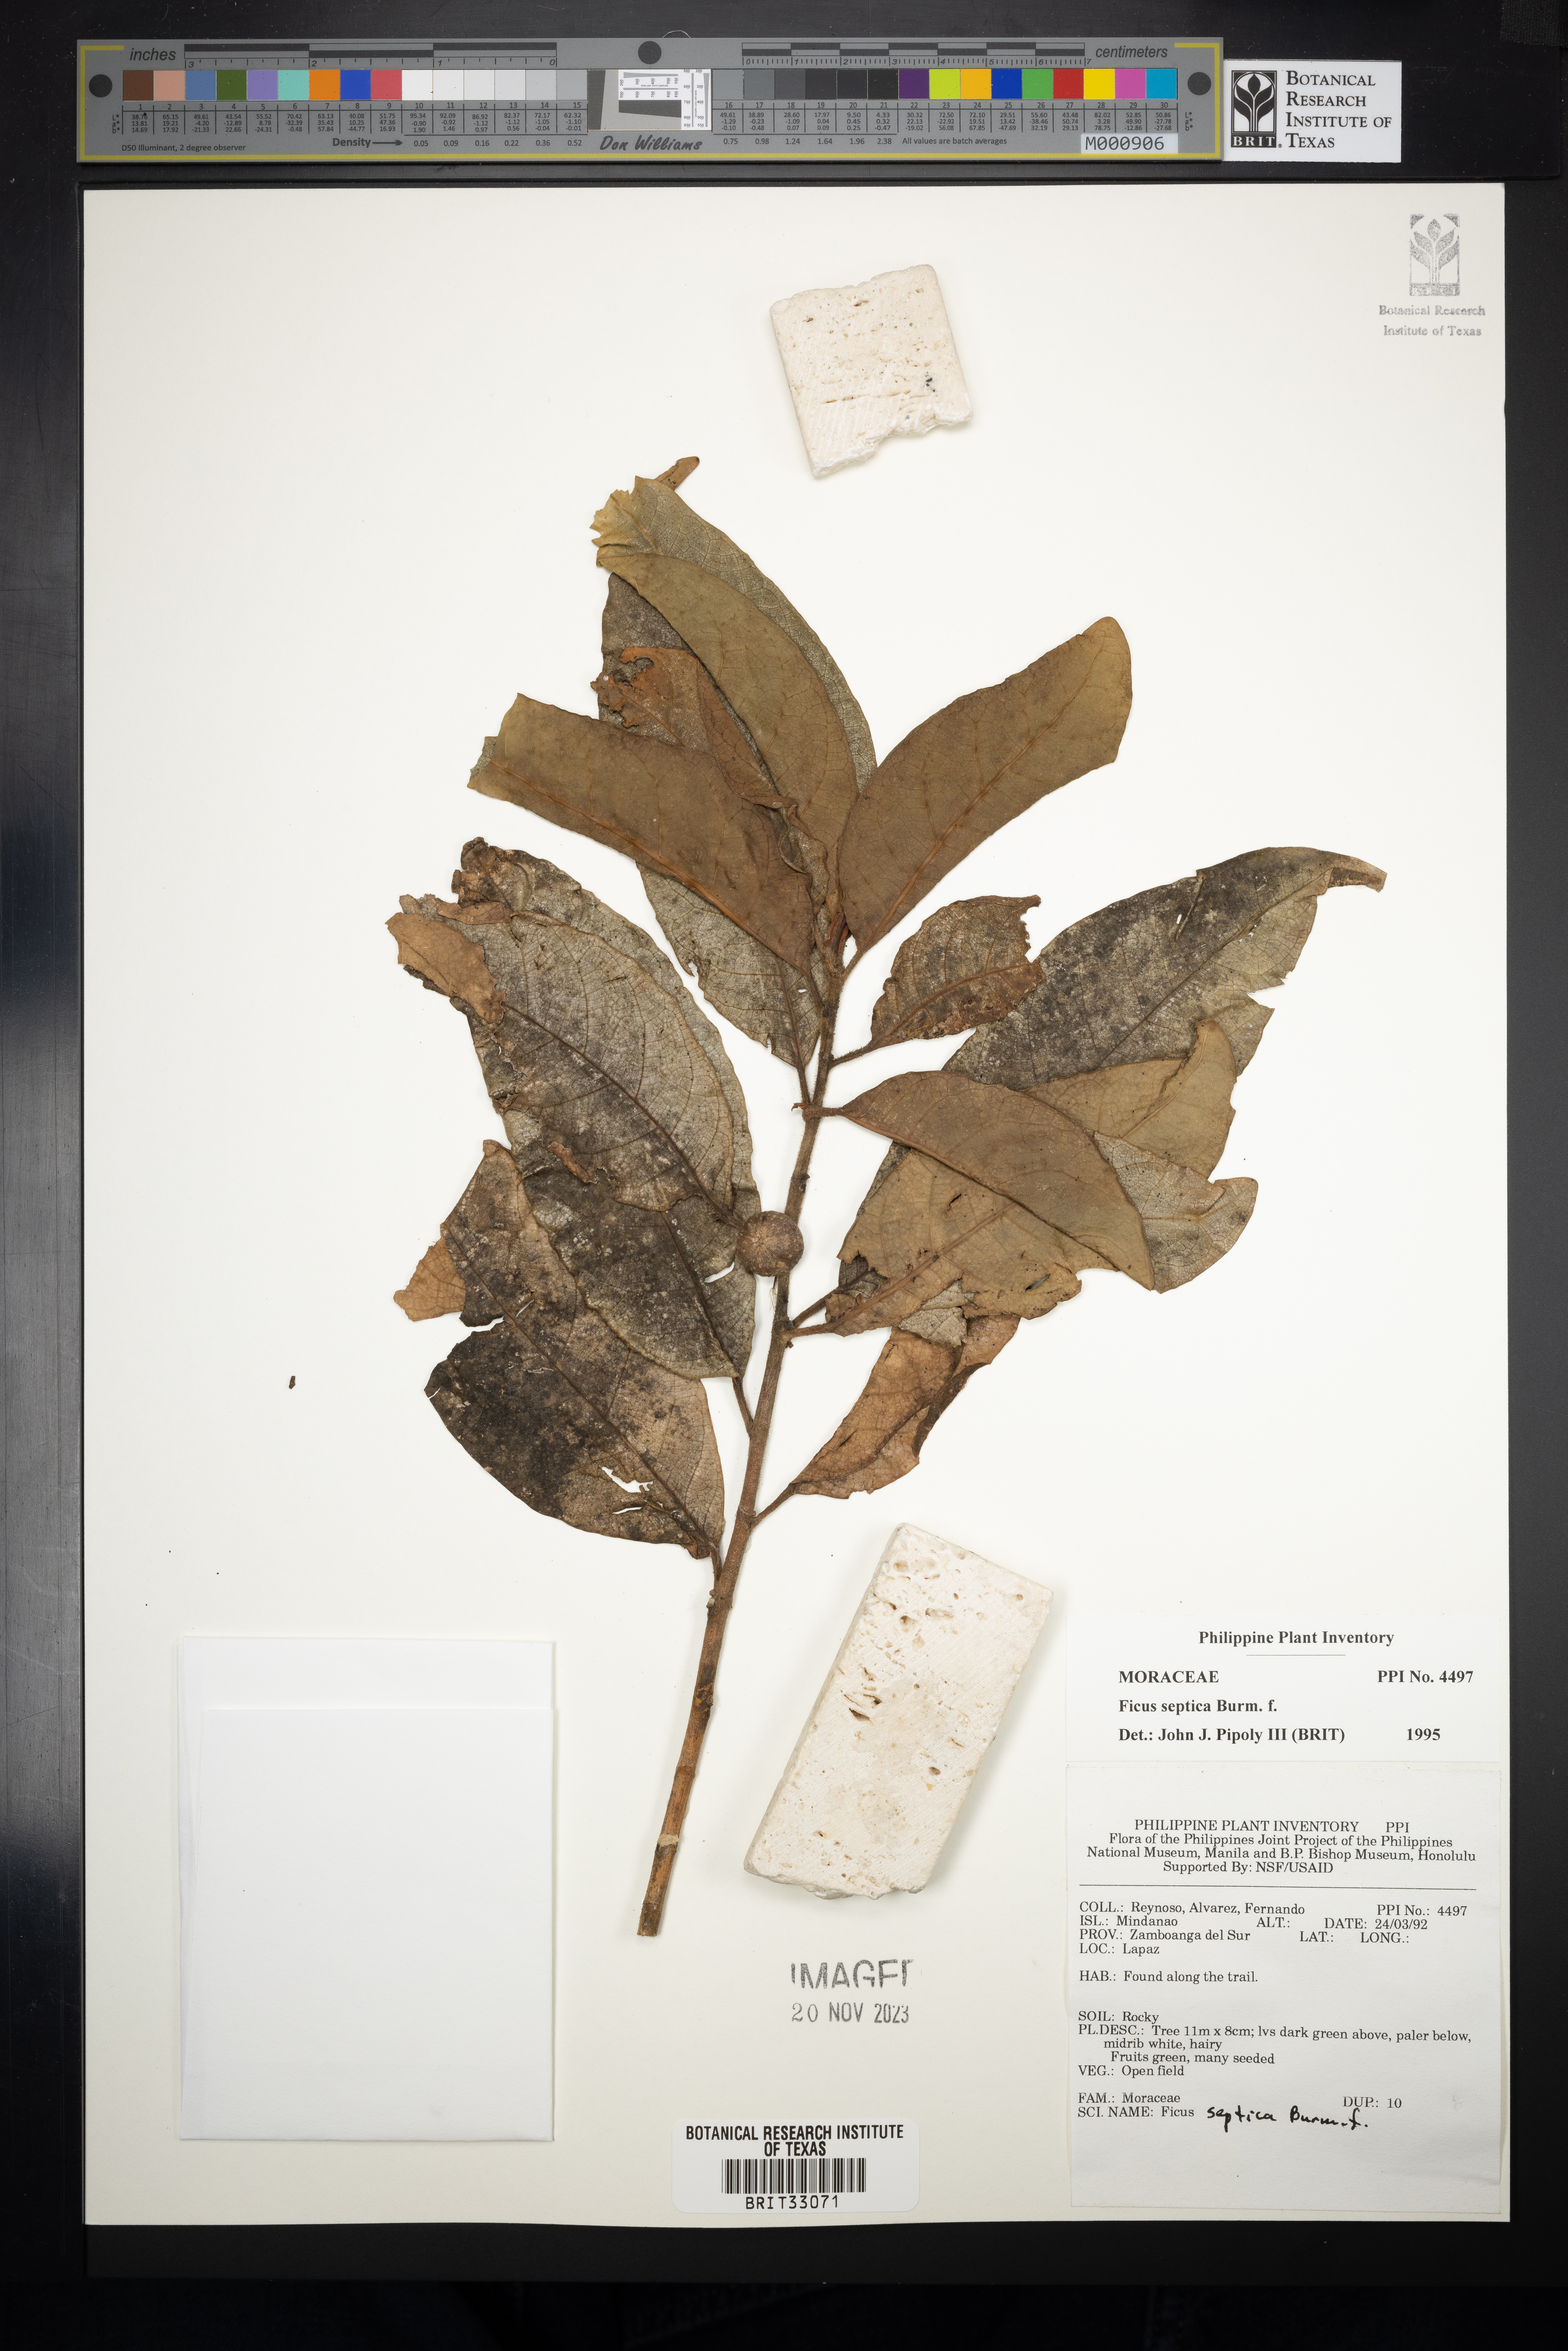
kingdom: Plantae
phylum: Tracheophyta
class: Magnoliopsida
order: Rosales
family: Moraceae
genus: Ficus
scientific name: Ficus septica
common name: Septic fig
